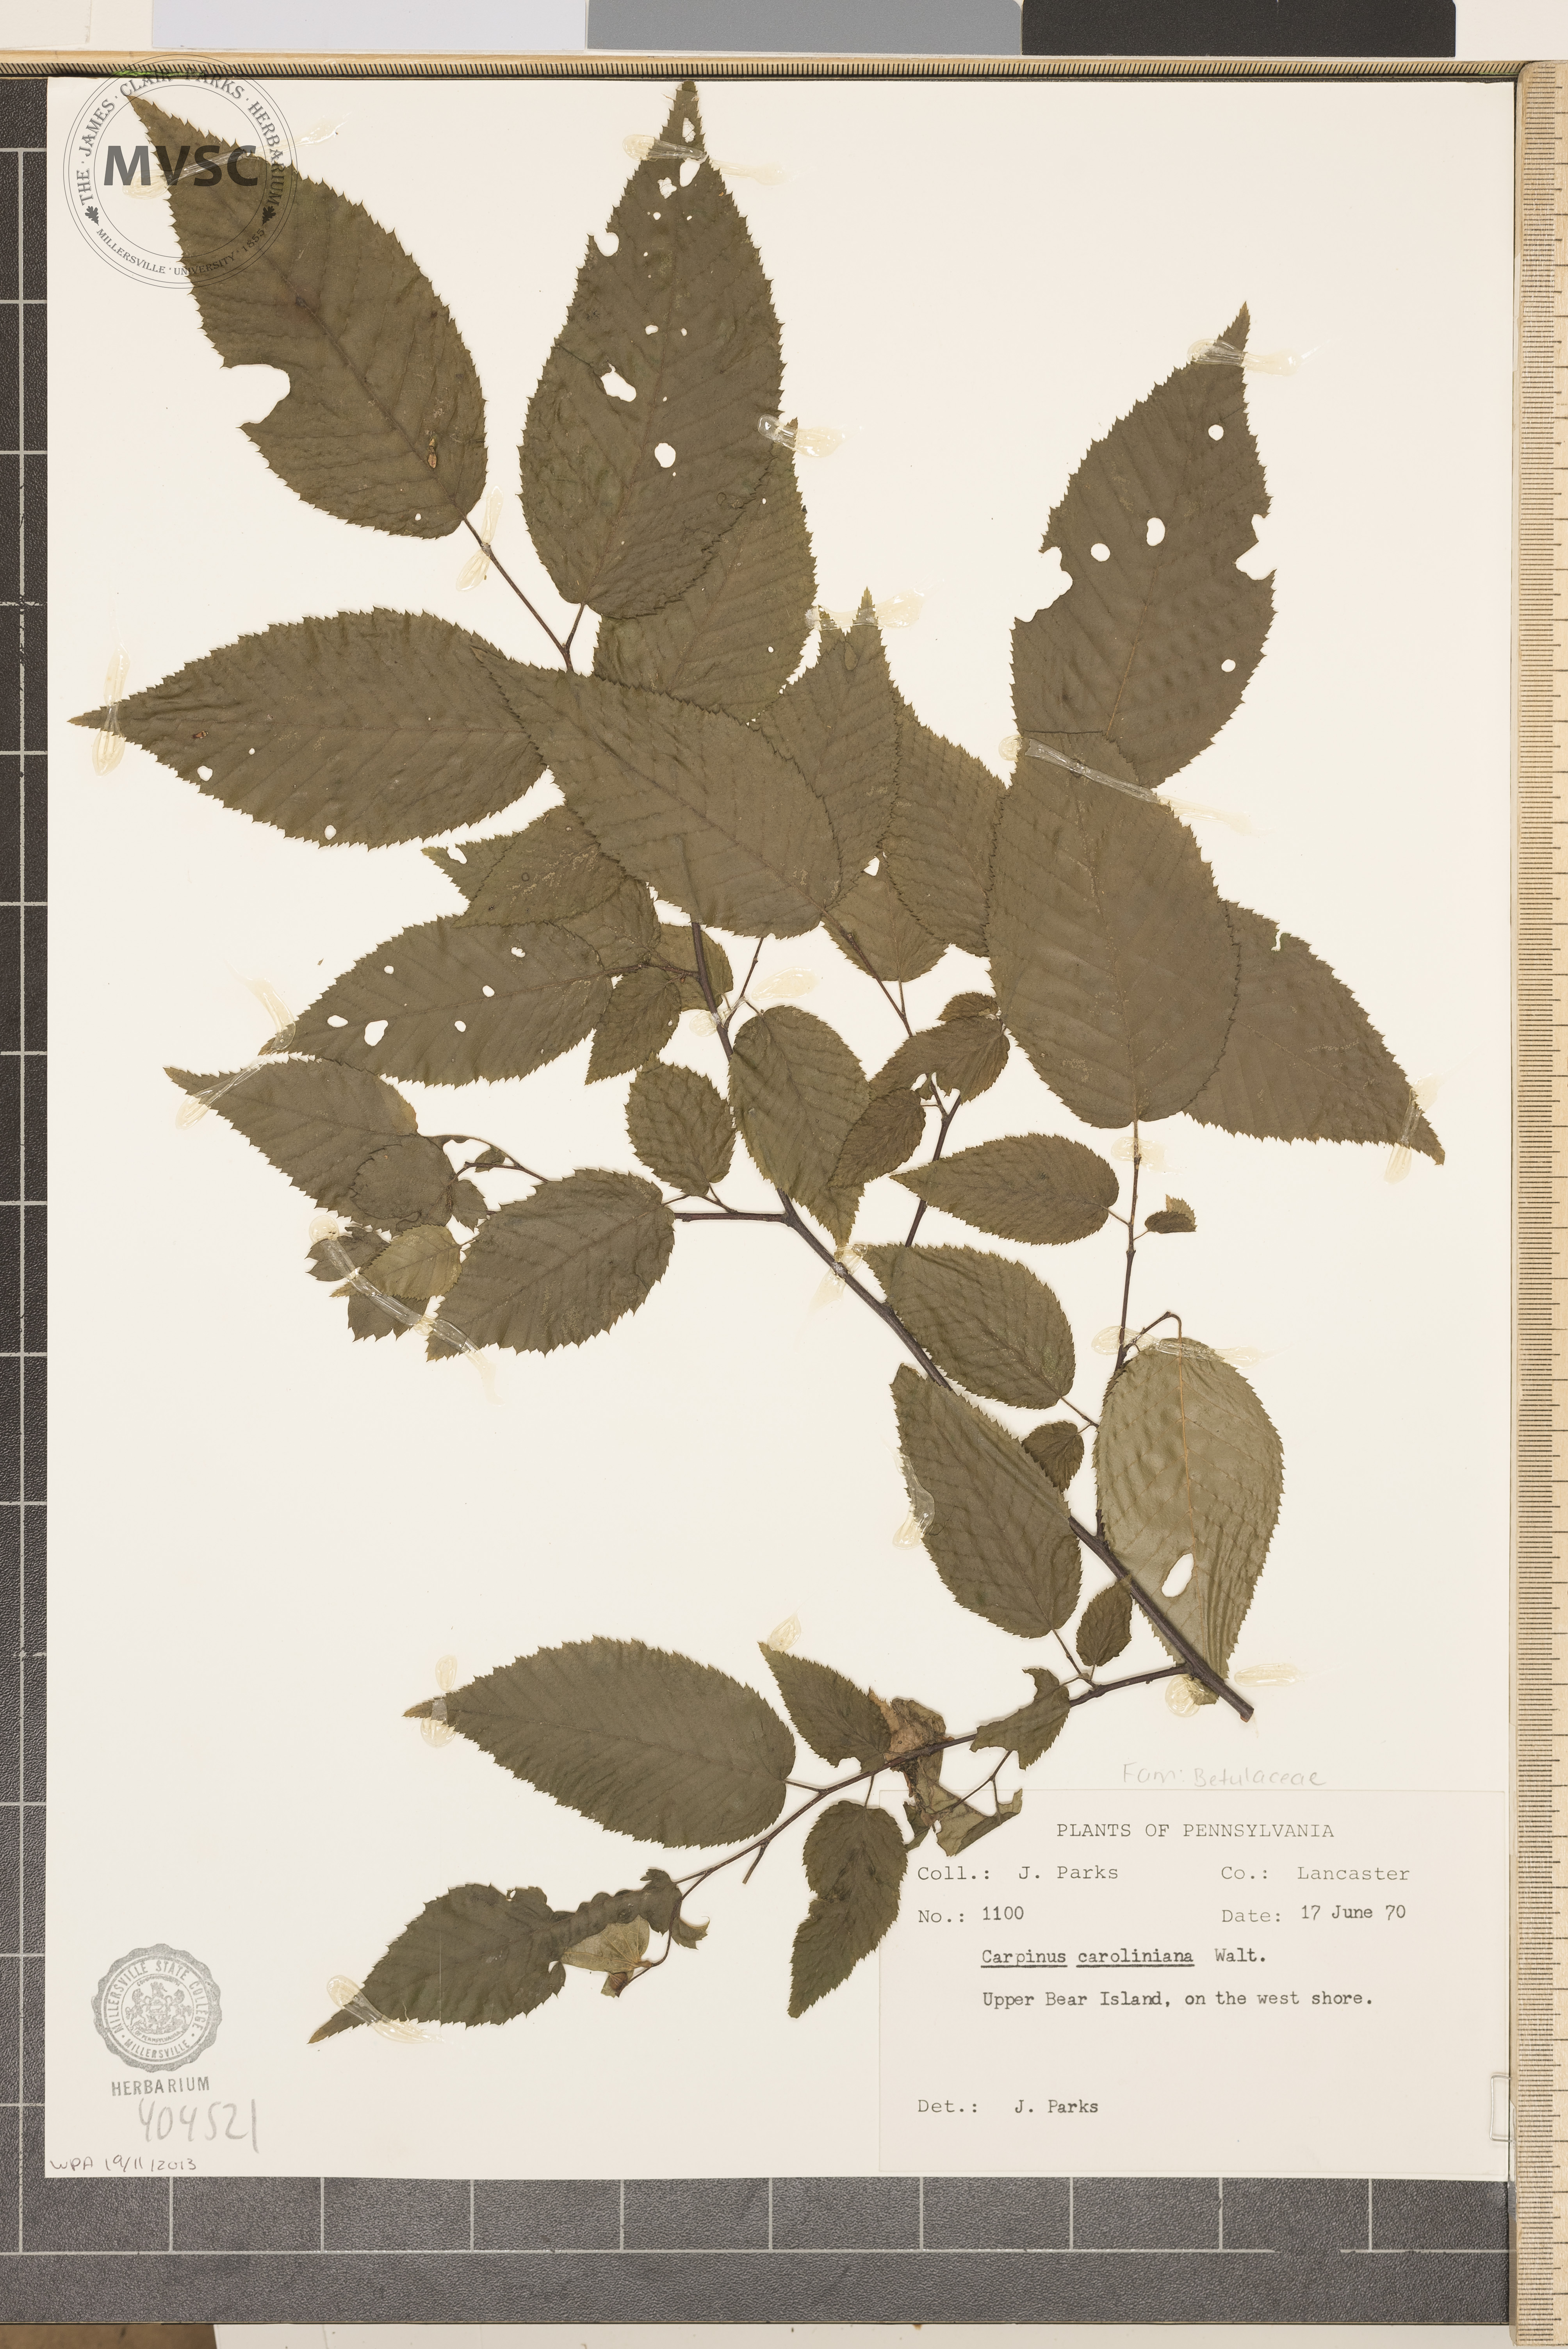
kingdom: Plantae
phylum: Tracheophyta
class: Magnoliopsida
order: Fagales
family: Betulaceae
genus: Carpinus
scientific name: Carpinus caroliniana
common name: American hornbeam
